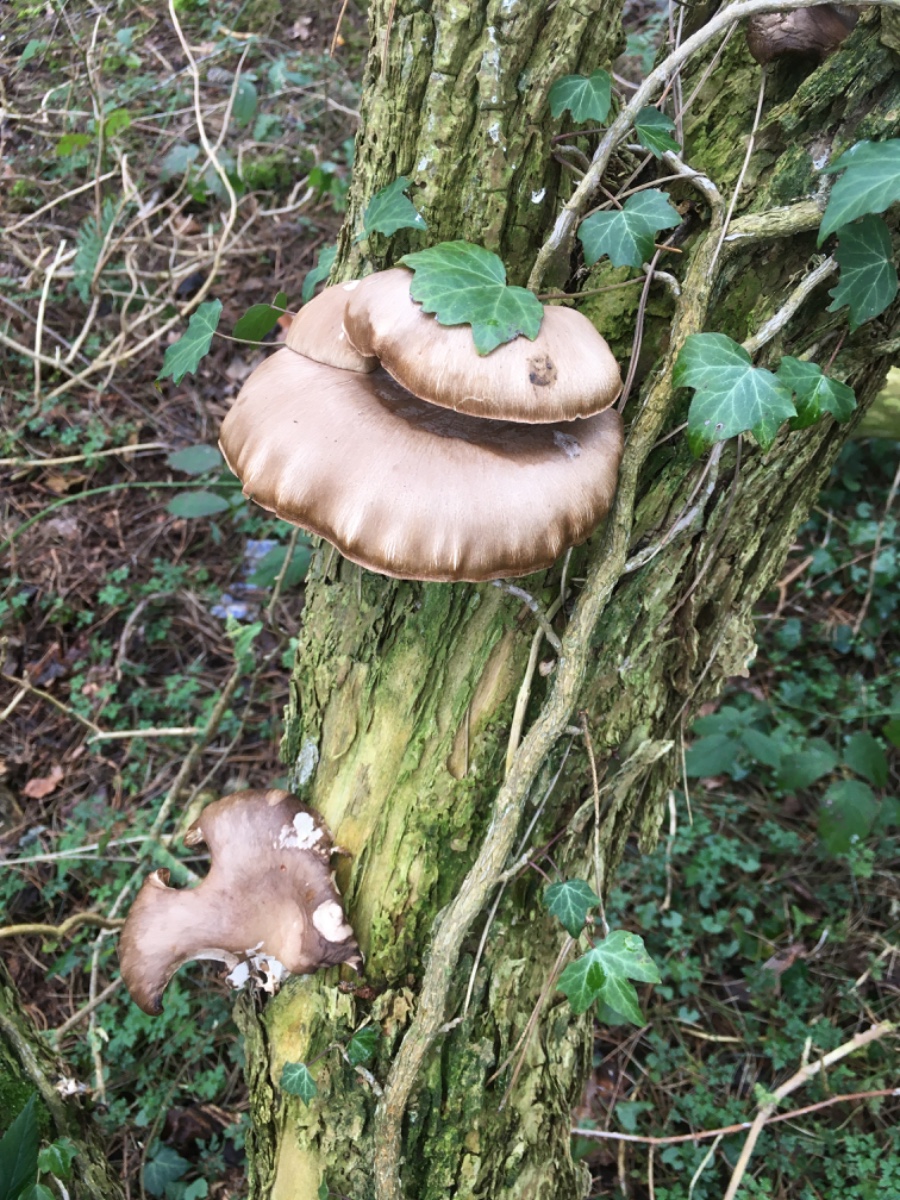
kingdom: Fungi
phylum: Basidiomycota
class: Agaricomycetes
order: Agaricales
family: Pleurotaceae
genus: Pleurotus
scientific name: Pleurotus ostreatus
